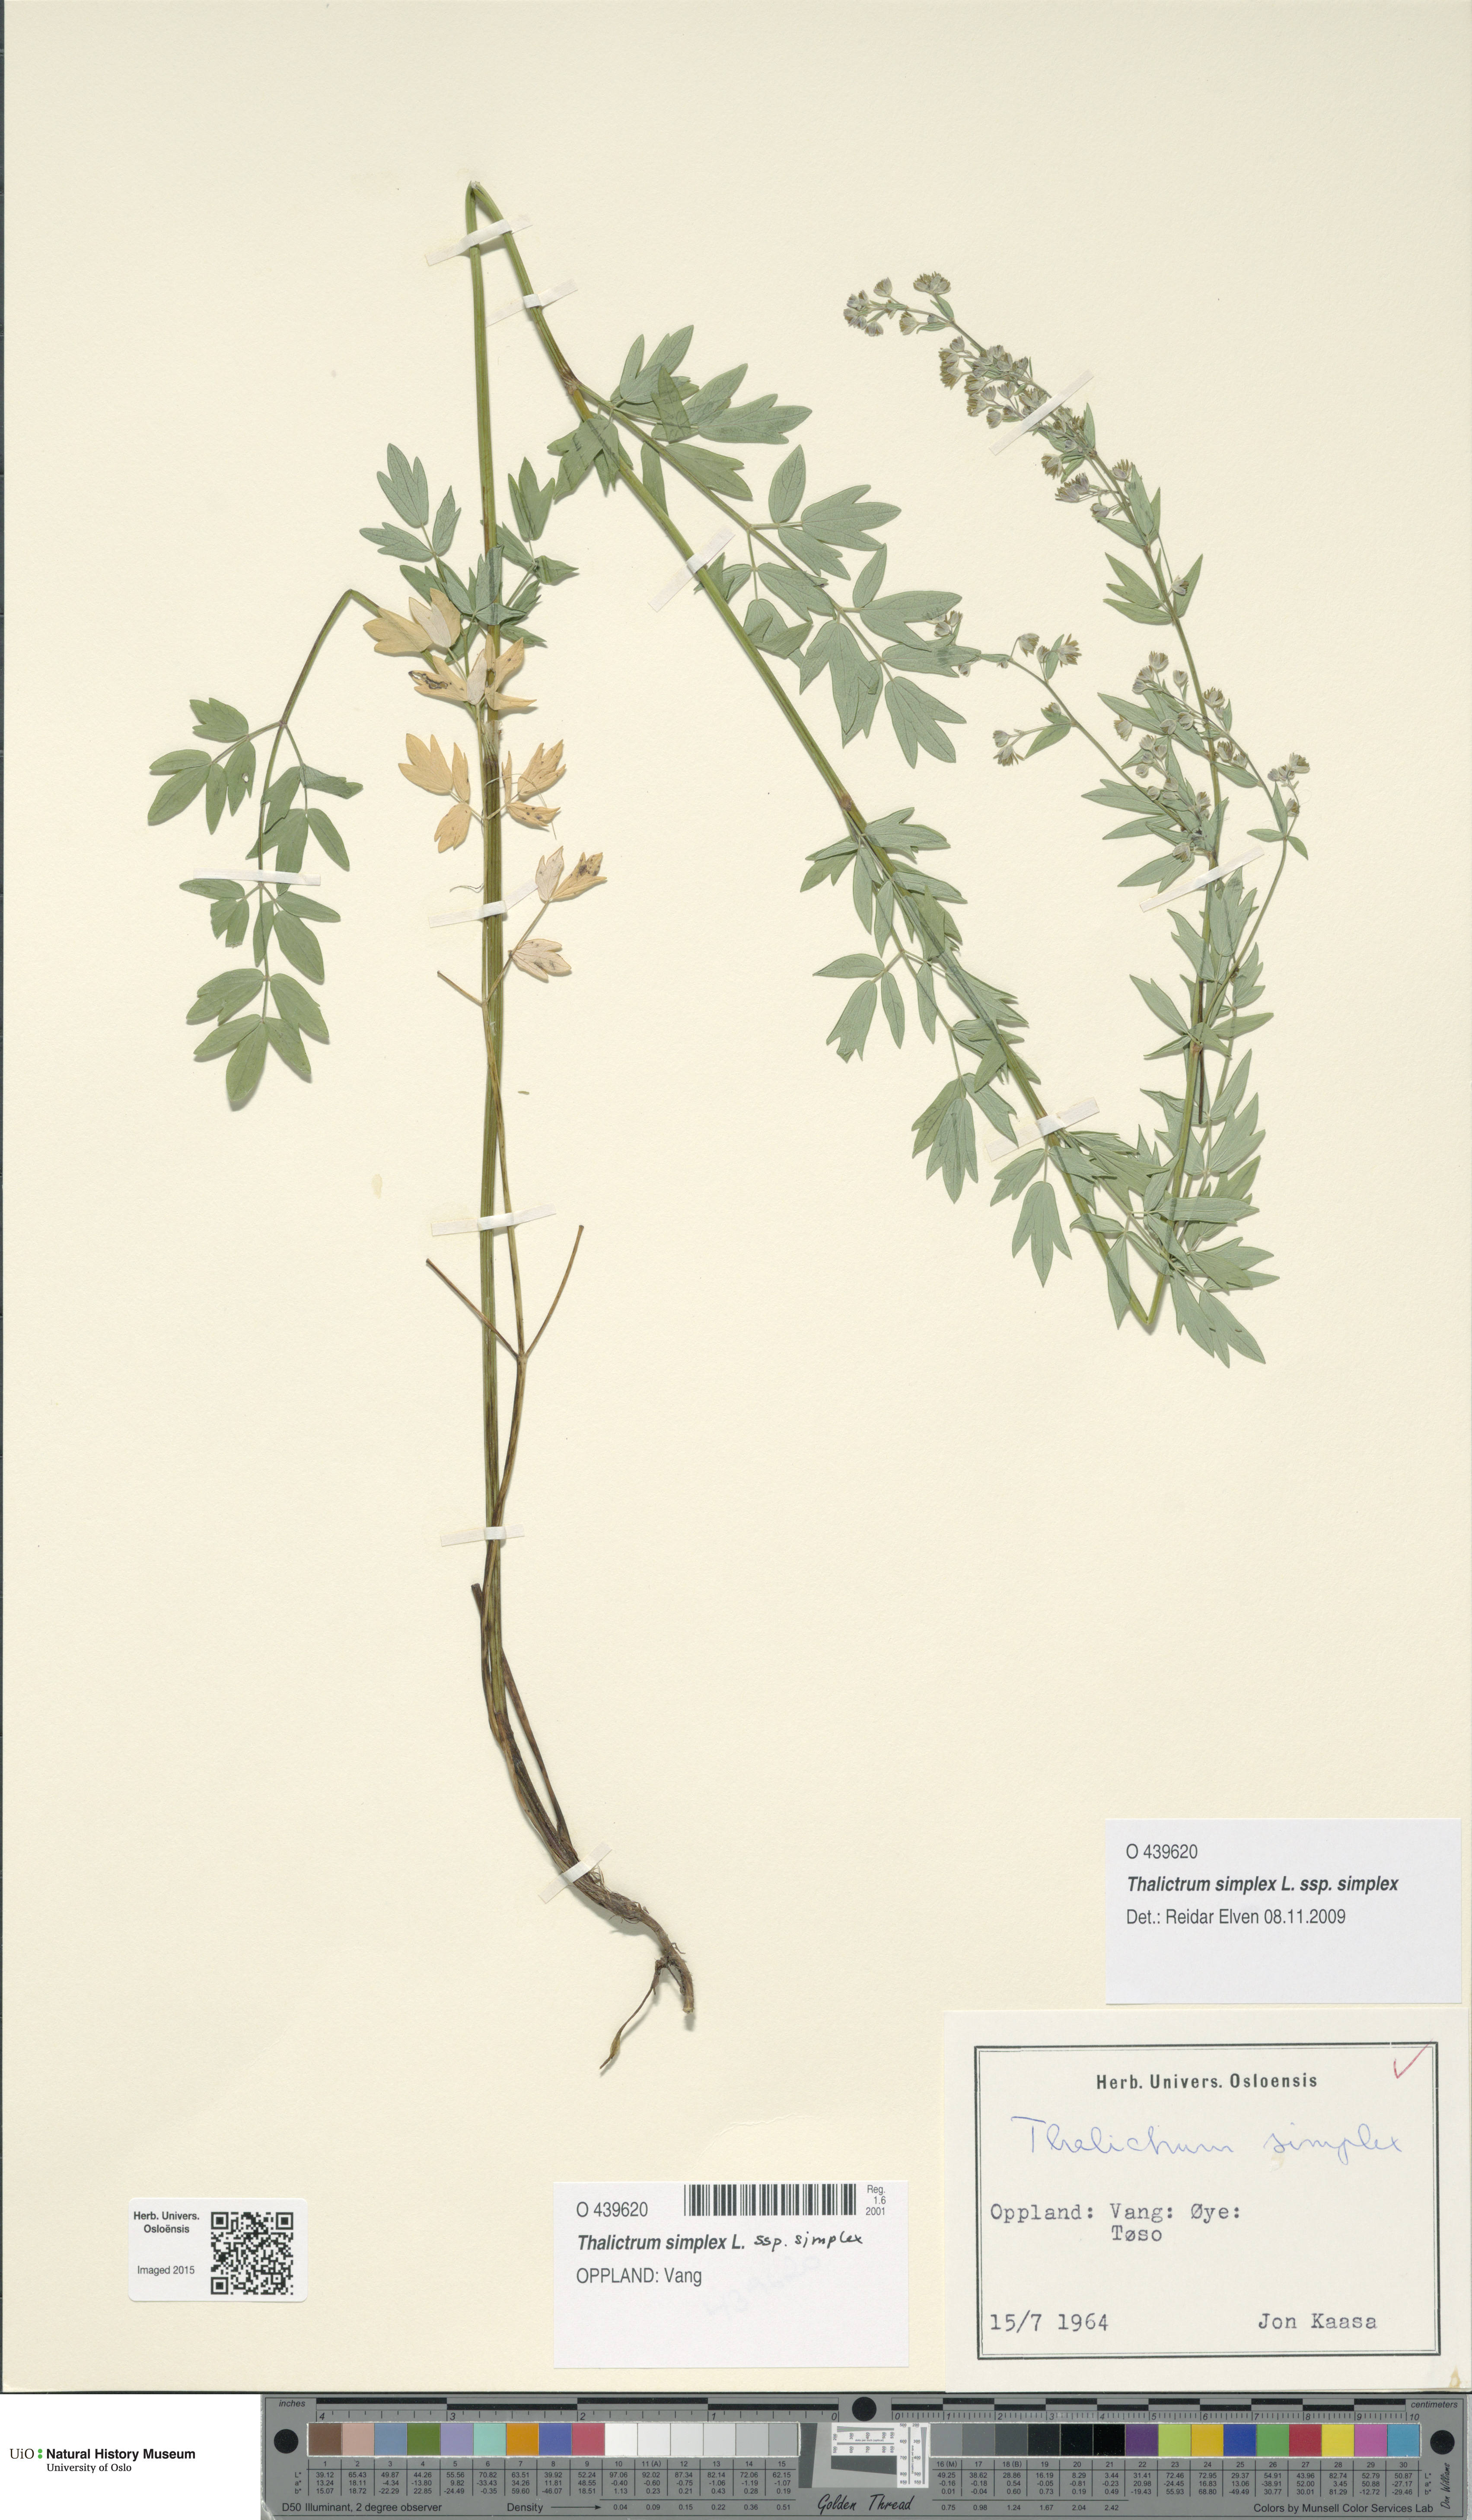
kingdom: Plantae
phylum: Tracheophyta
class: Magnoliopsida
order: Ranunculales
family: Ranunculaceae
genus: Thalictrum
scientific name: Thalictrum simplex
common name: Small meadow-rue
